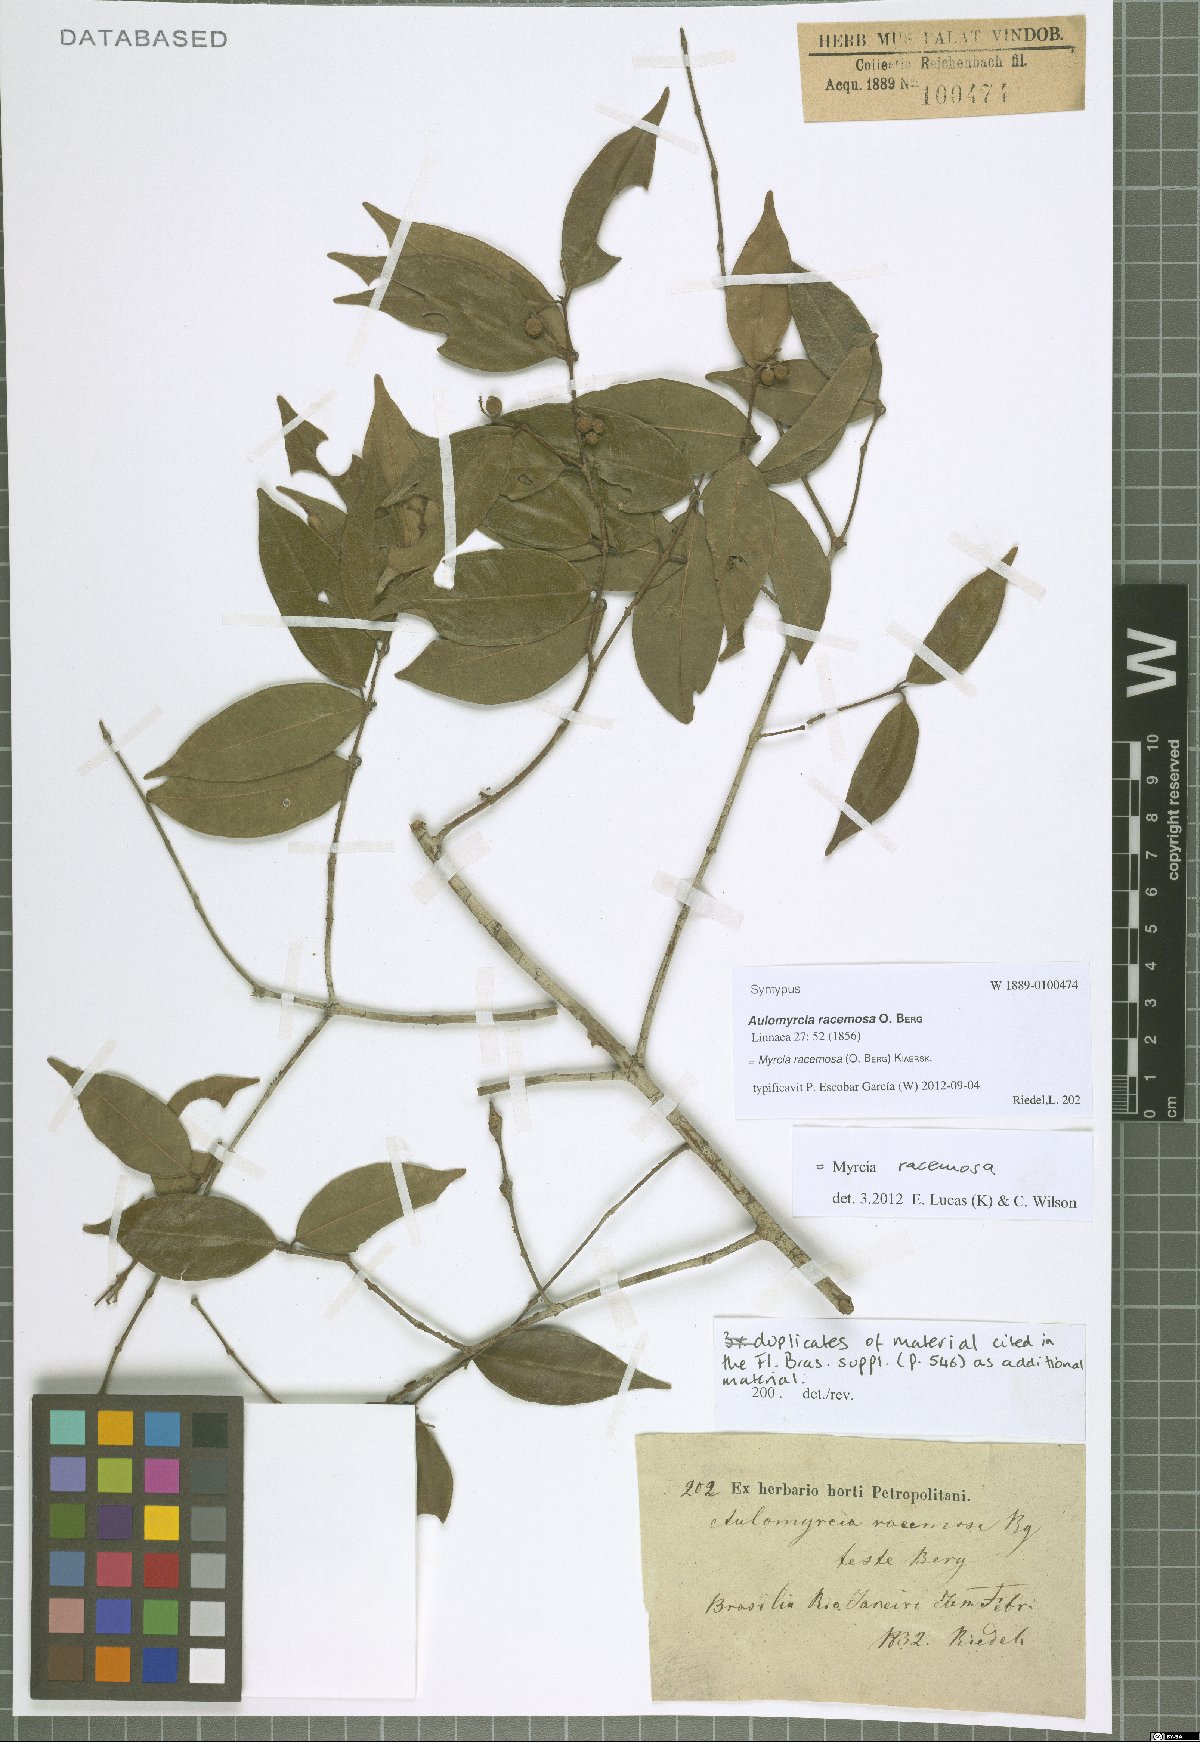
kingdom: Plantae
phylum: Tracheophyta
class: Magnoliopsida
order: Myrtales
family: Myrtaceae
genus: Myrcia
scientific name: Myrcia racemosa
